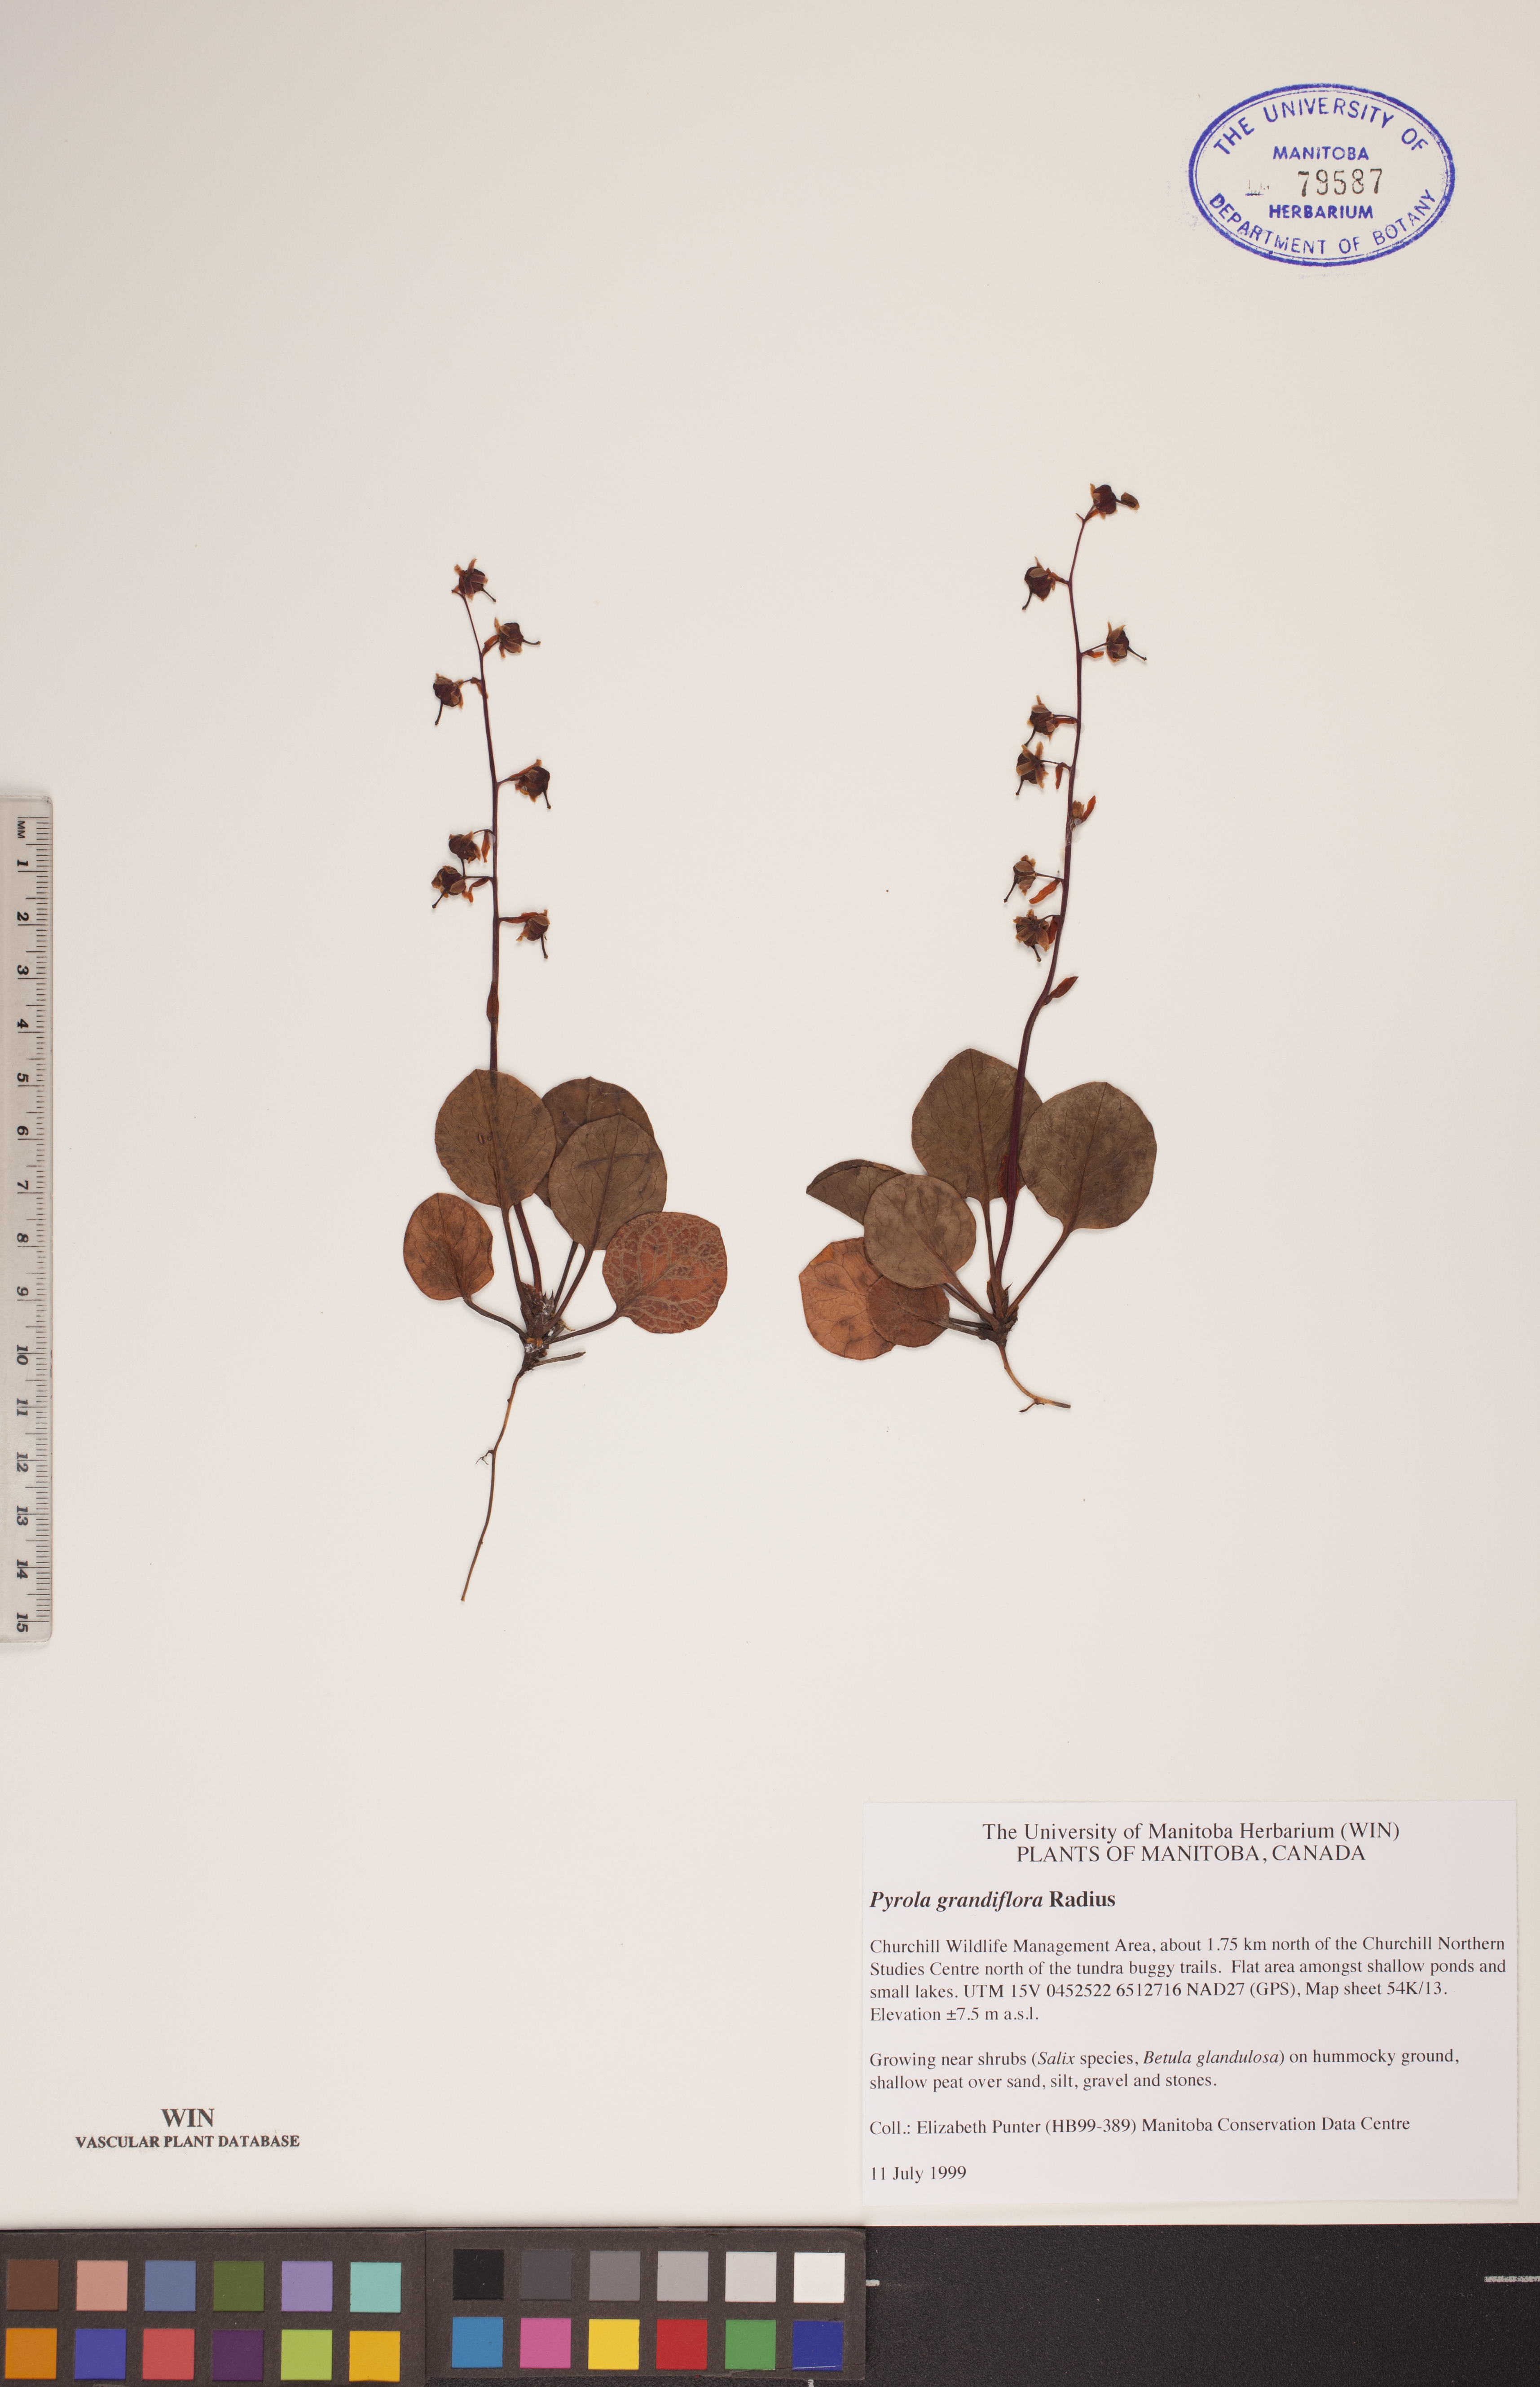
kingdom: Plantae
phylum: Tracheophyta
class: Magnoliopsida
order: Ericales
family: Ericaceae
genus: Pyrola
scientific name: Pyrola grandiflora
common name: Arctic pyrola
